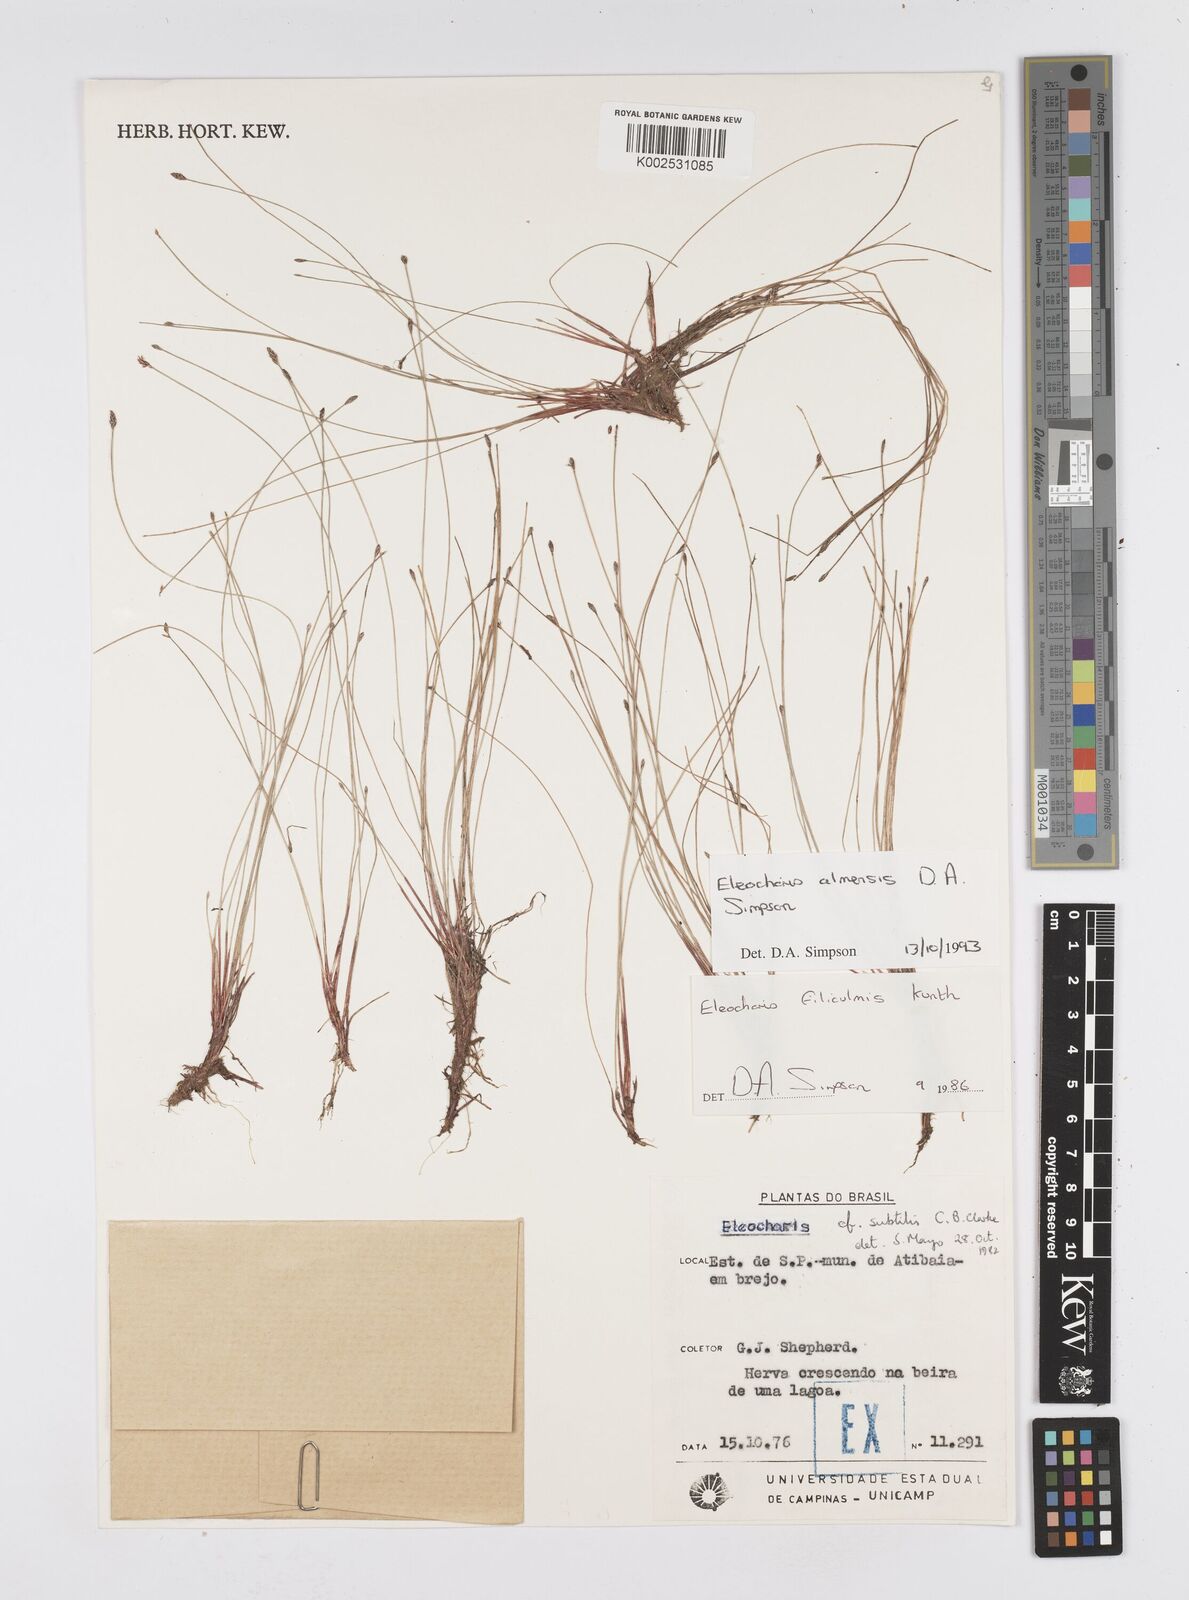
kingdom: Plantae
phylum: Tracheophyta
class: Liliopsida
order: Poales
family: Cyperaceae
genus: Eleocharis
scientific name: Eleocharis loefgreniana
